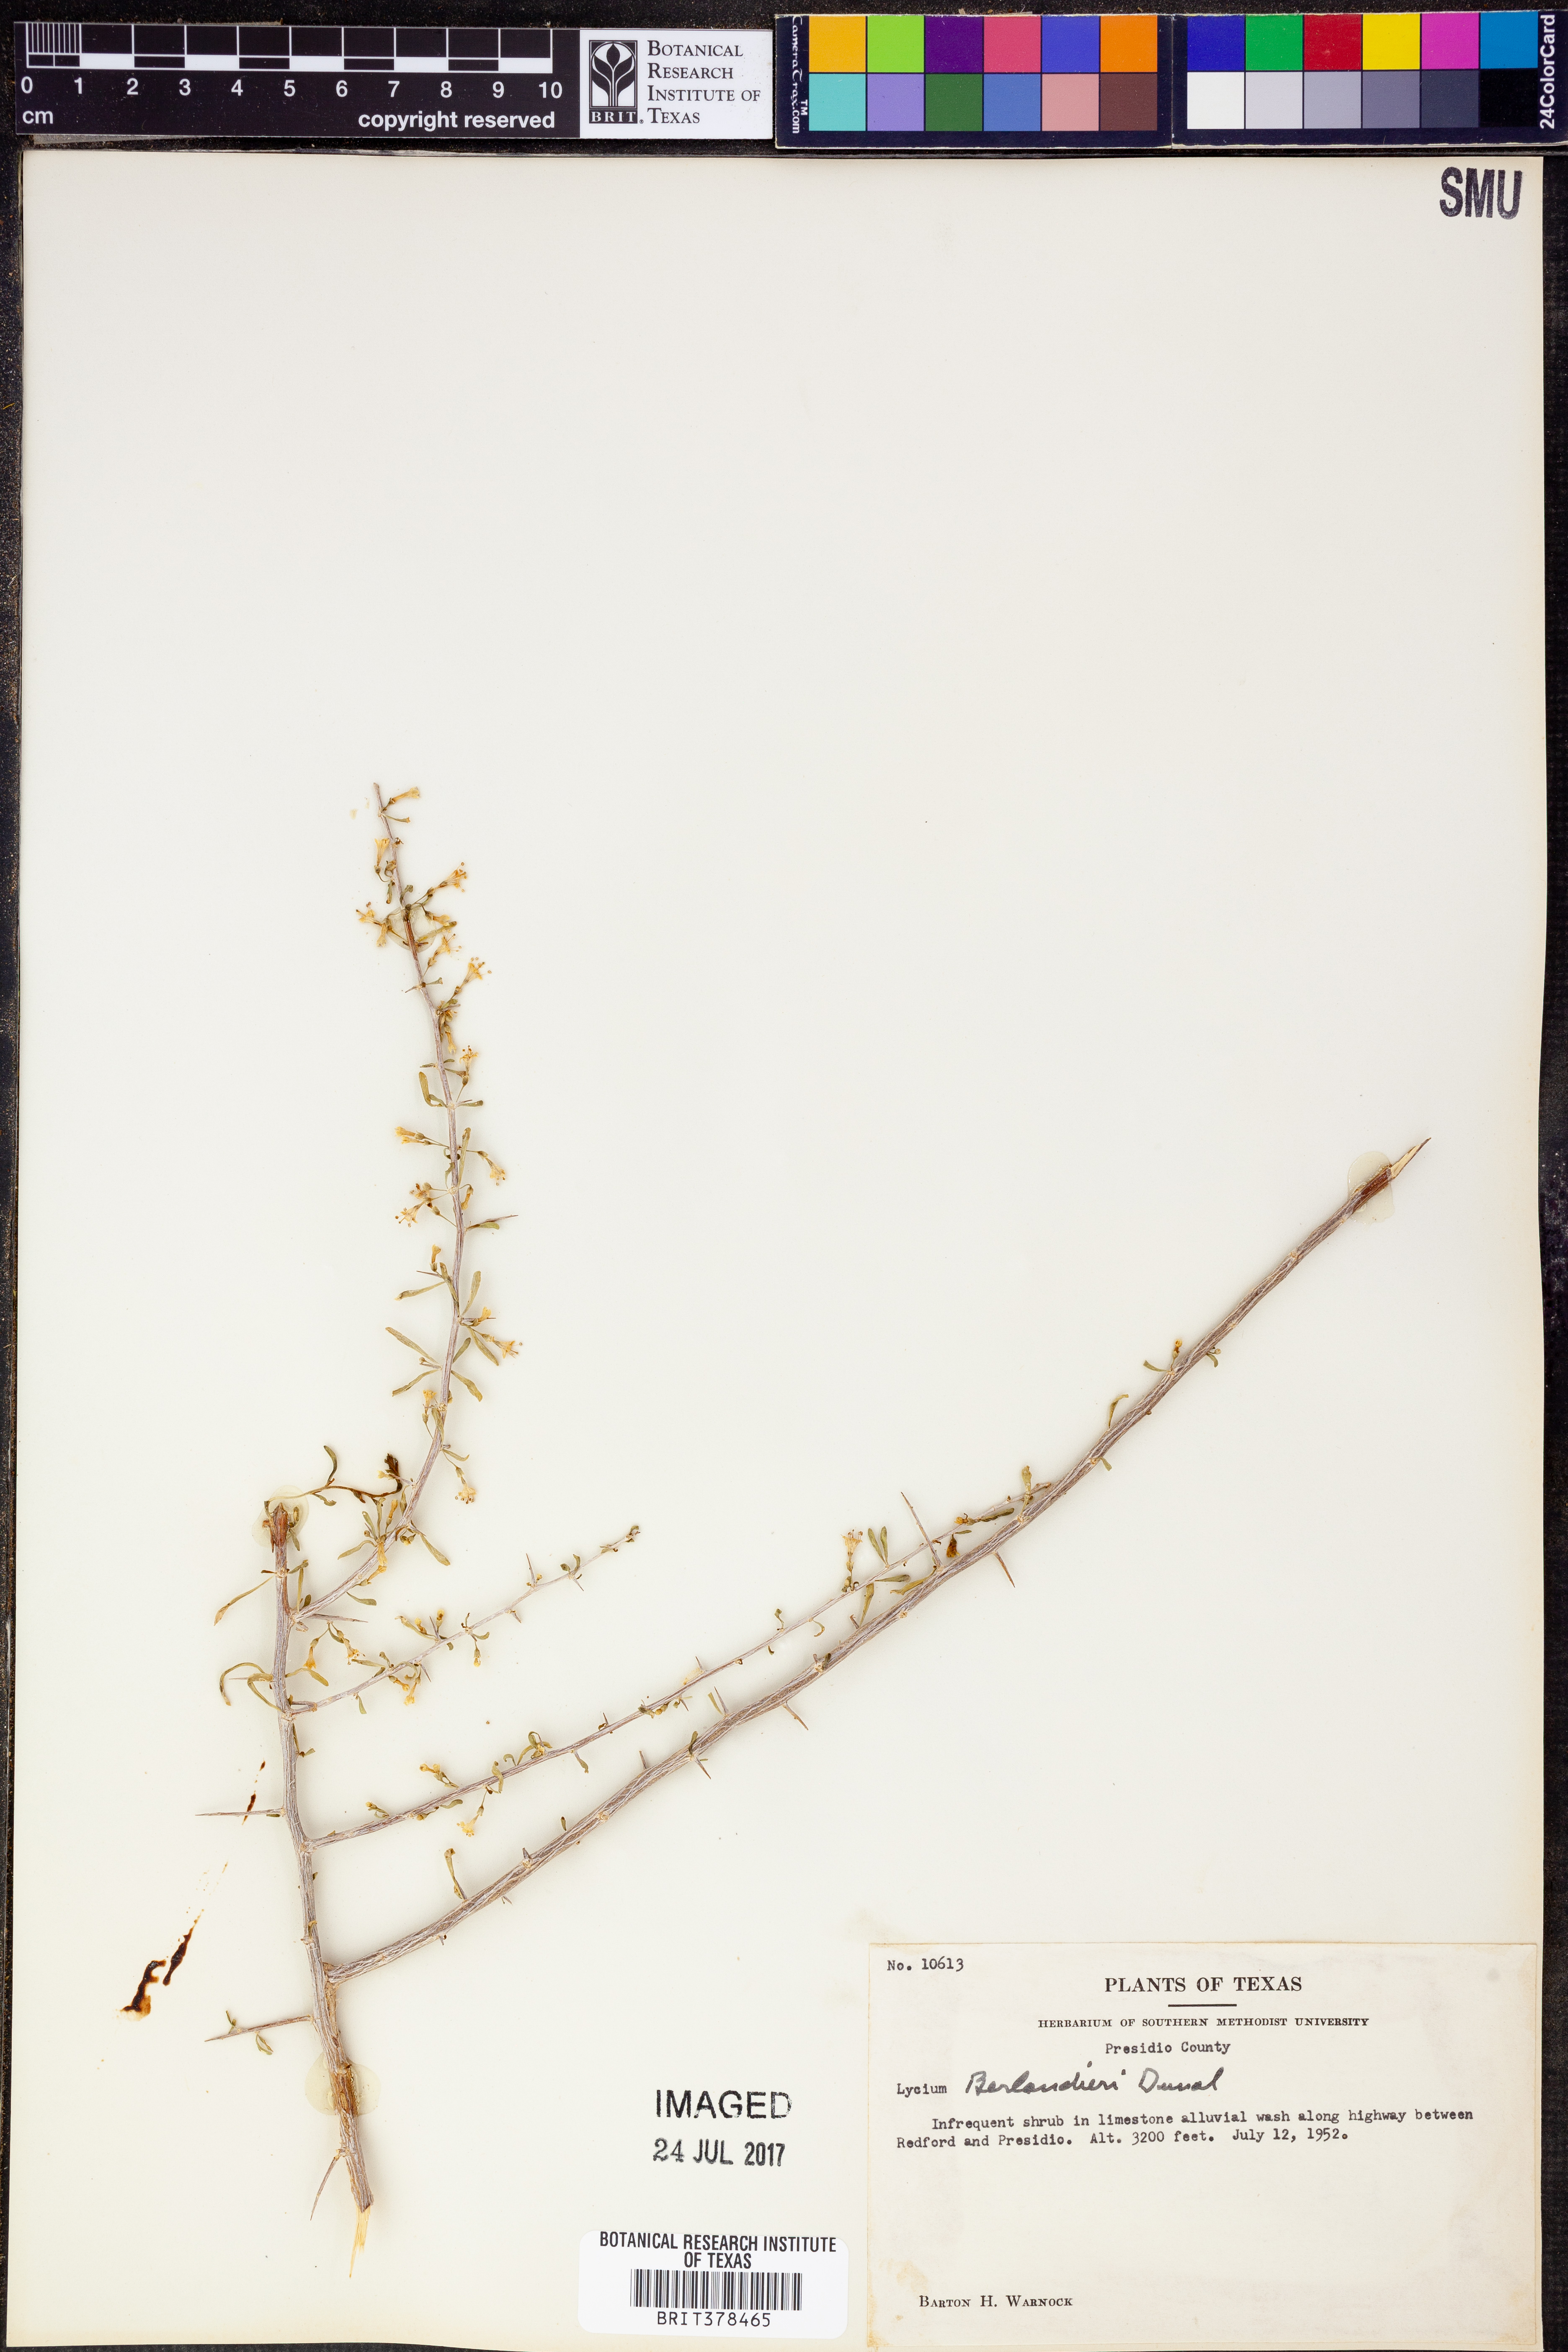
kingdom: Plantae
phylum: Tracheophyta
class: Magnoliopsida
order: Solanales
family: Solanaceae
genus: Lycium
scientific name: Lycium berlandieri
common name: Berlandier wolfberry
